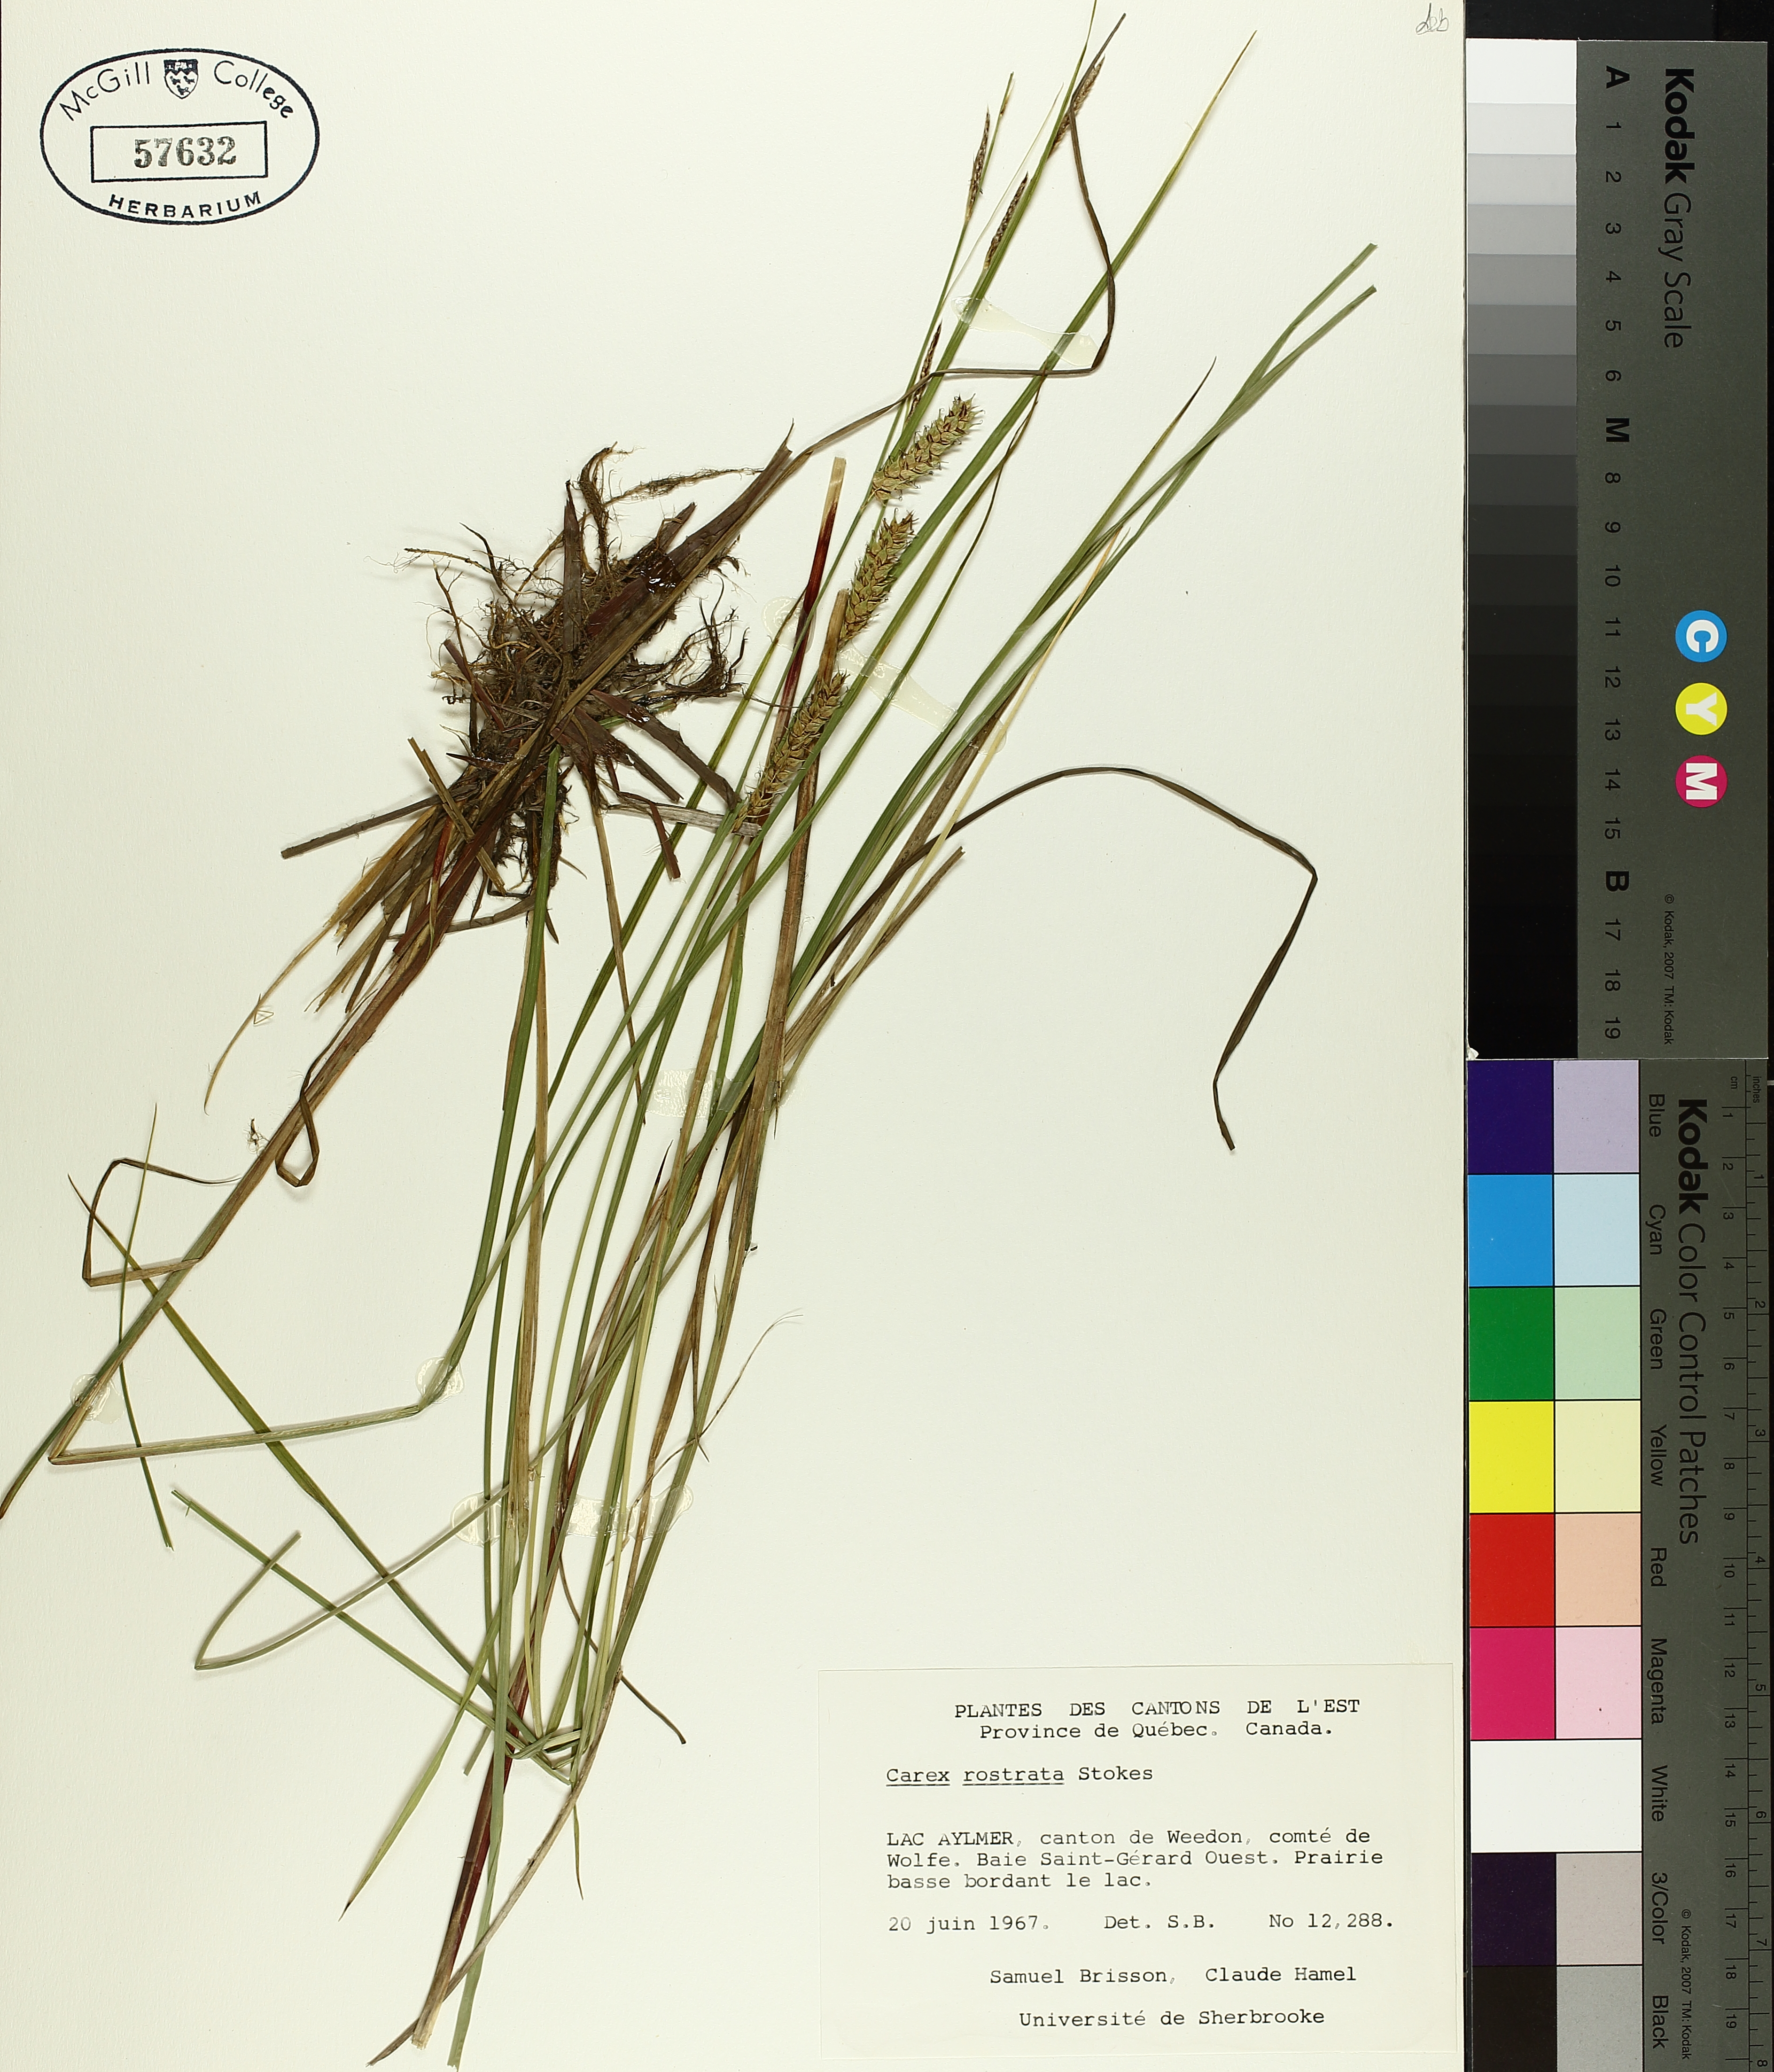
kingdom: Plantae
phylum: Tracheophyta
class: Liliopsida
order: Poales
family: Cyperaceae
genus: Carex
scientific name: Carex rostrata
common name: Bottle sedge
